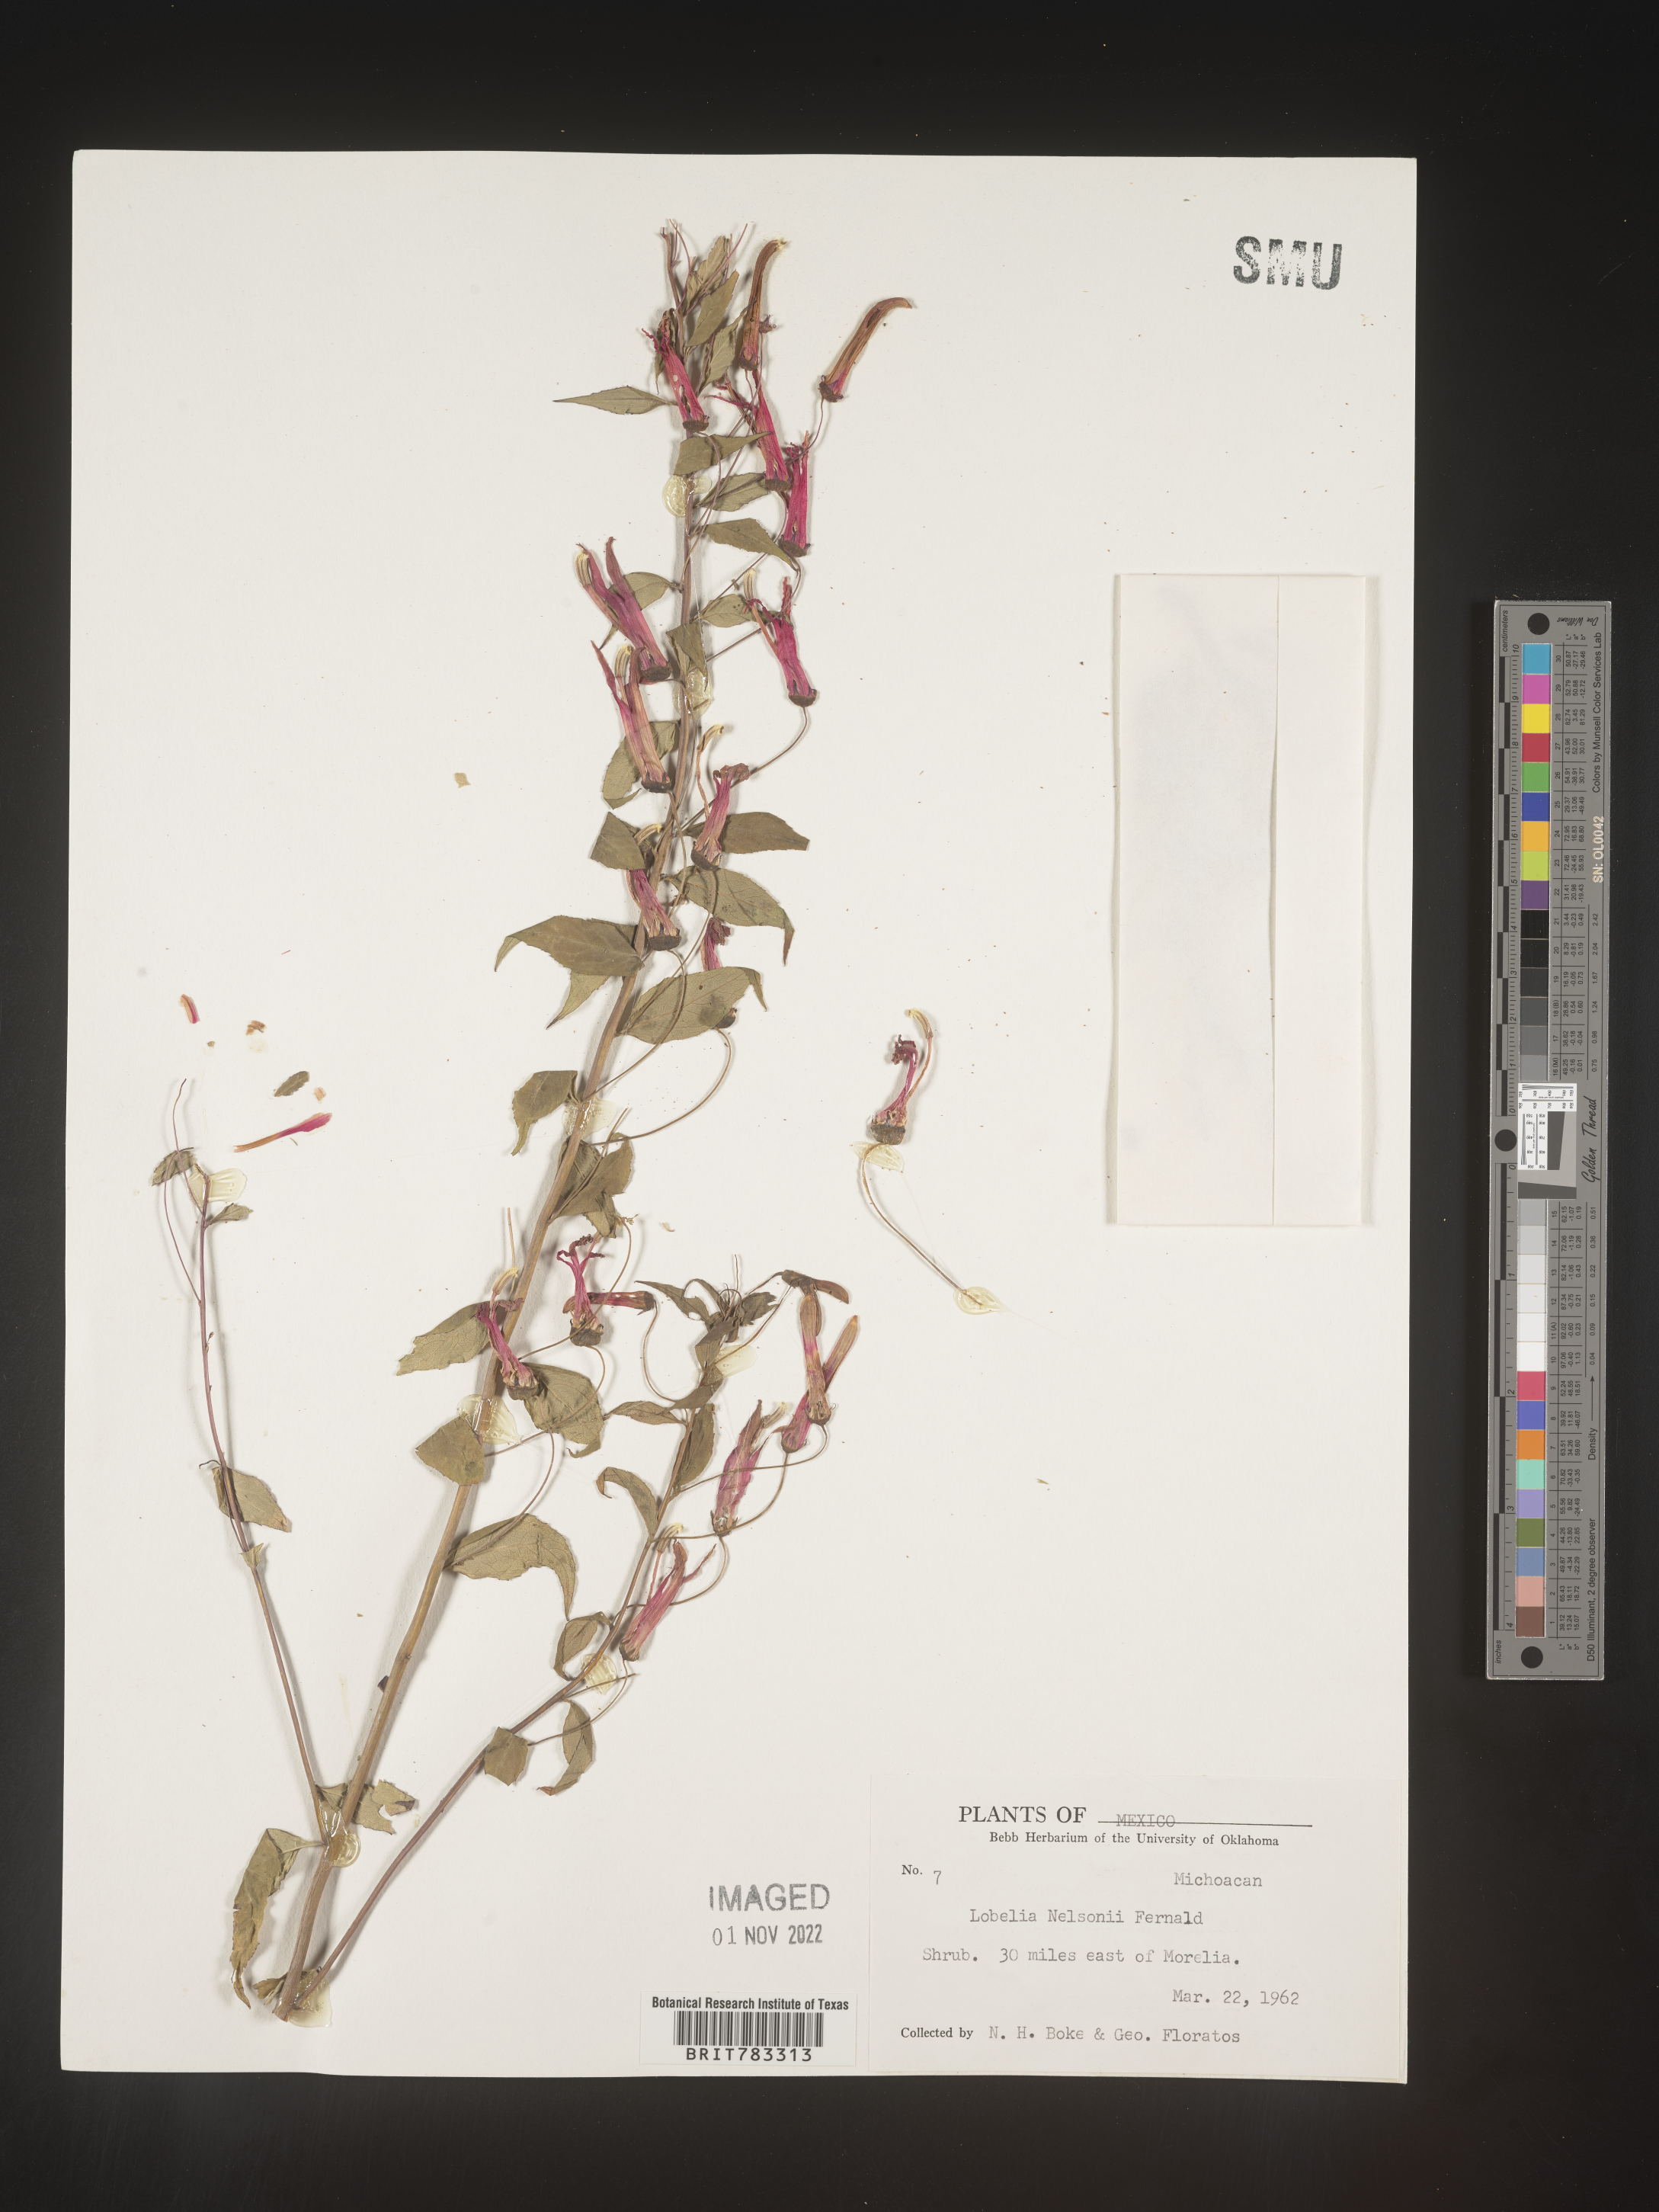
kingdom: Plantae
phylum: Tracheophyta
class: Magnoliopsida
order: Asterales
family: Campanulaceae
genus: Lobelia
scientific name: Lobelia
